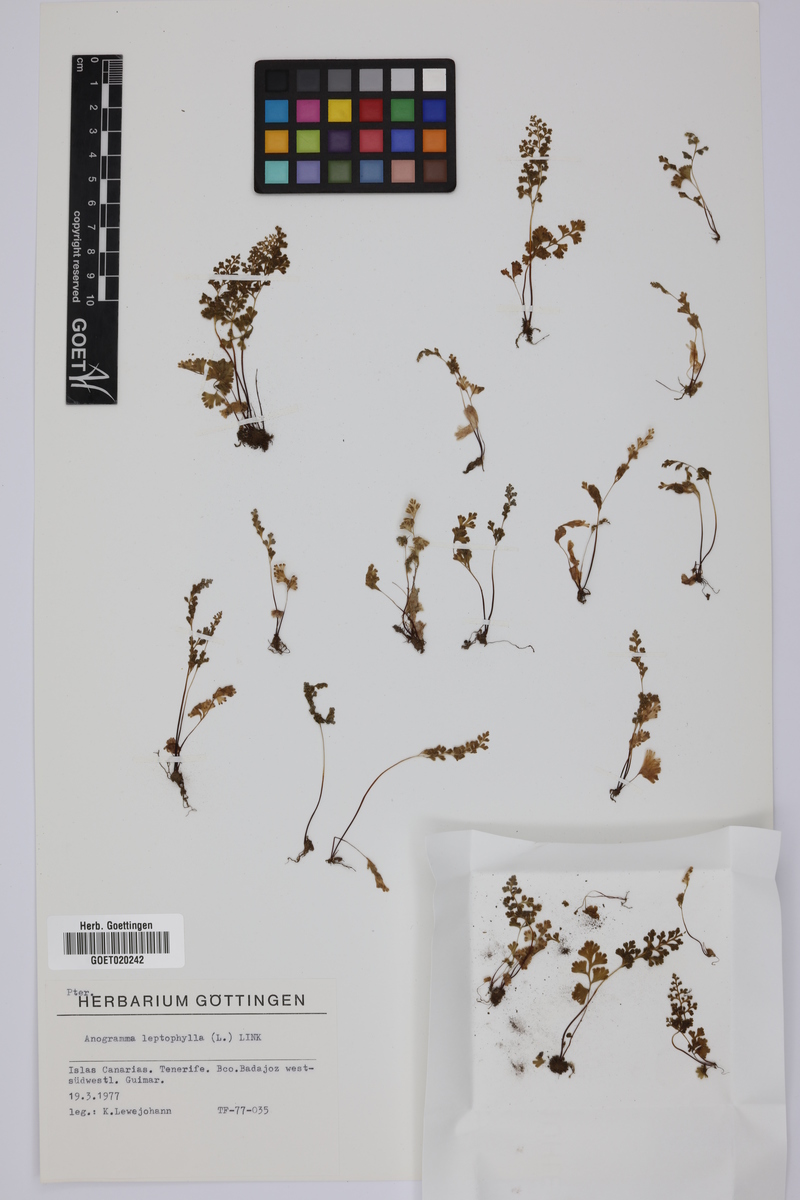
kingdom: Plantae
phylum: Tracheophyta
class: Polypodiopsida
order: Polypodiales
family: Pteridaceae
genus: Anogramma
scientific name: Anogramma leptophylla
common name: Jersey fern
